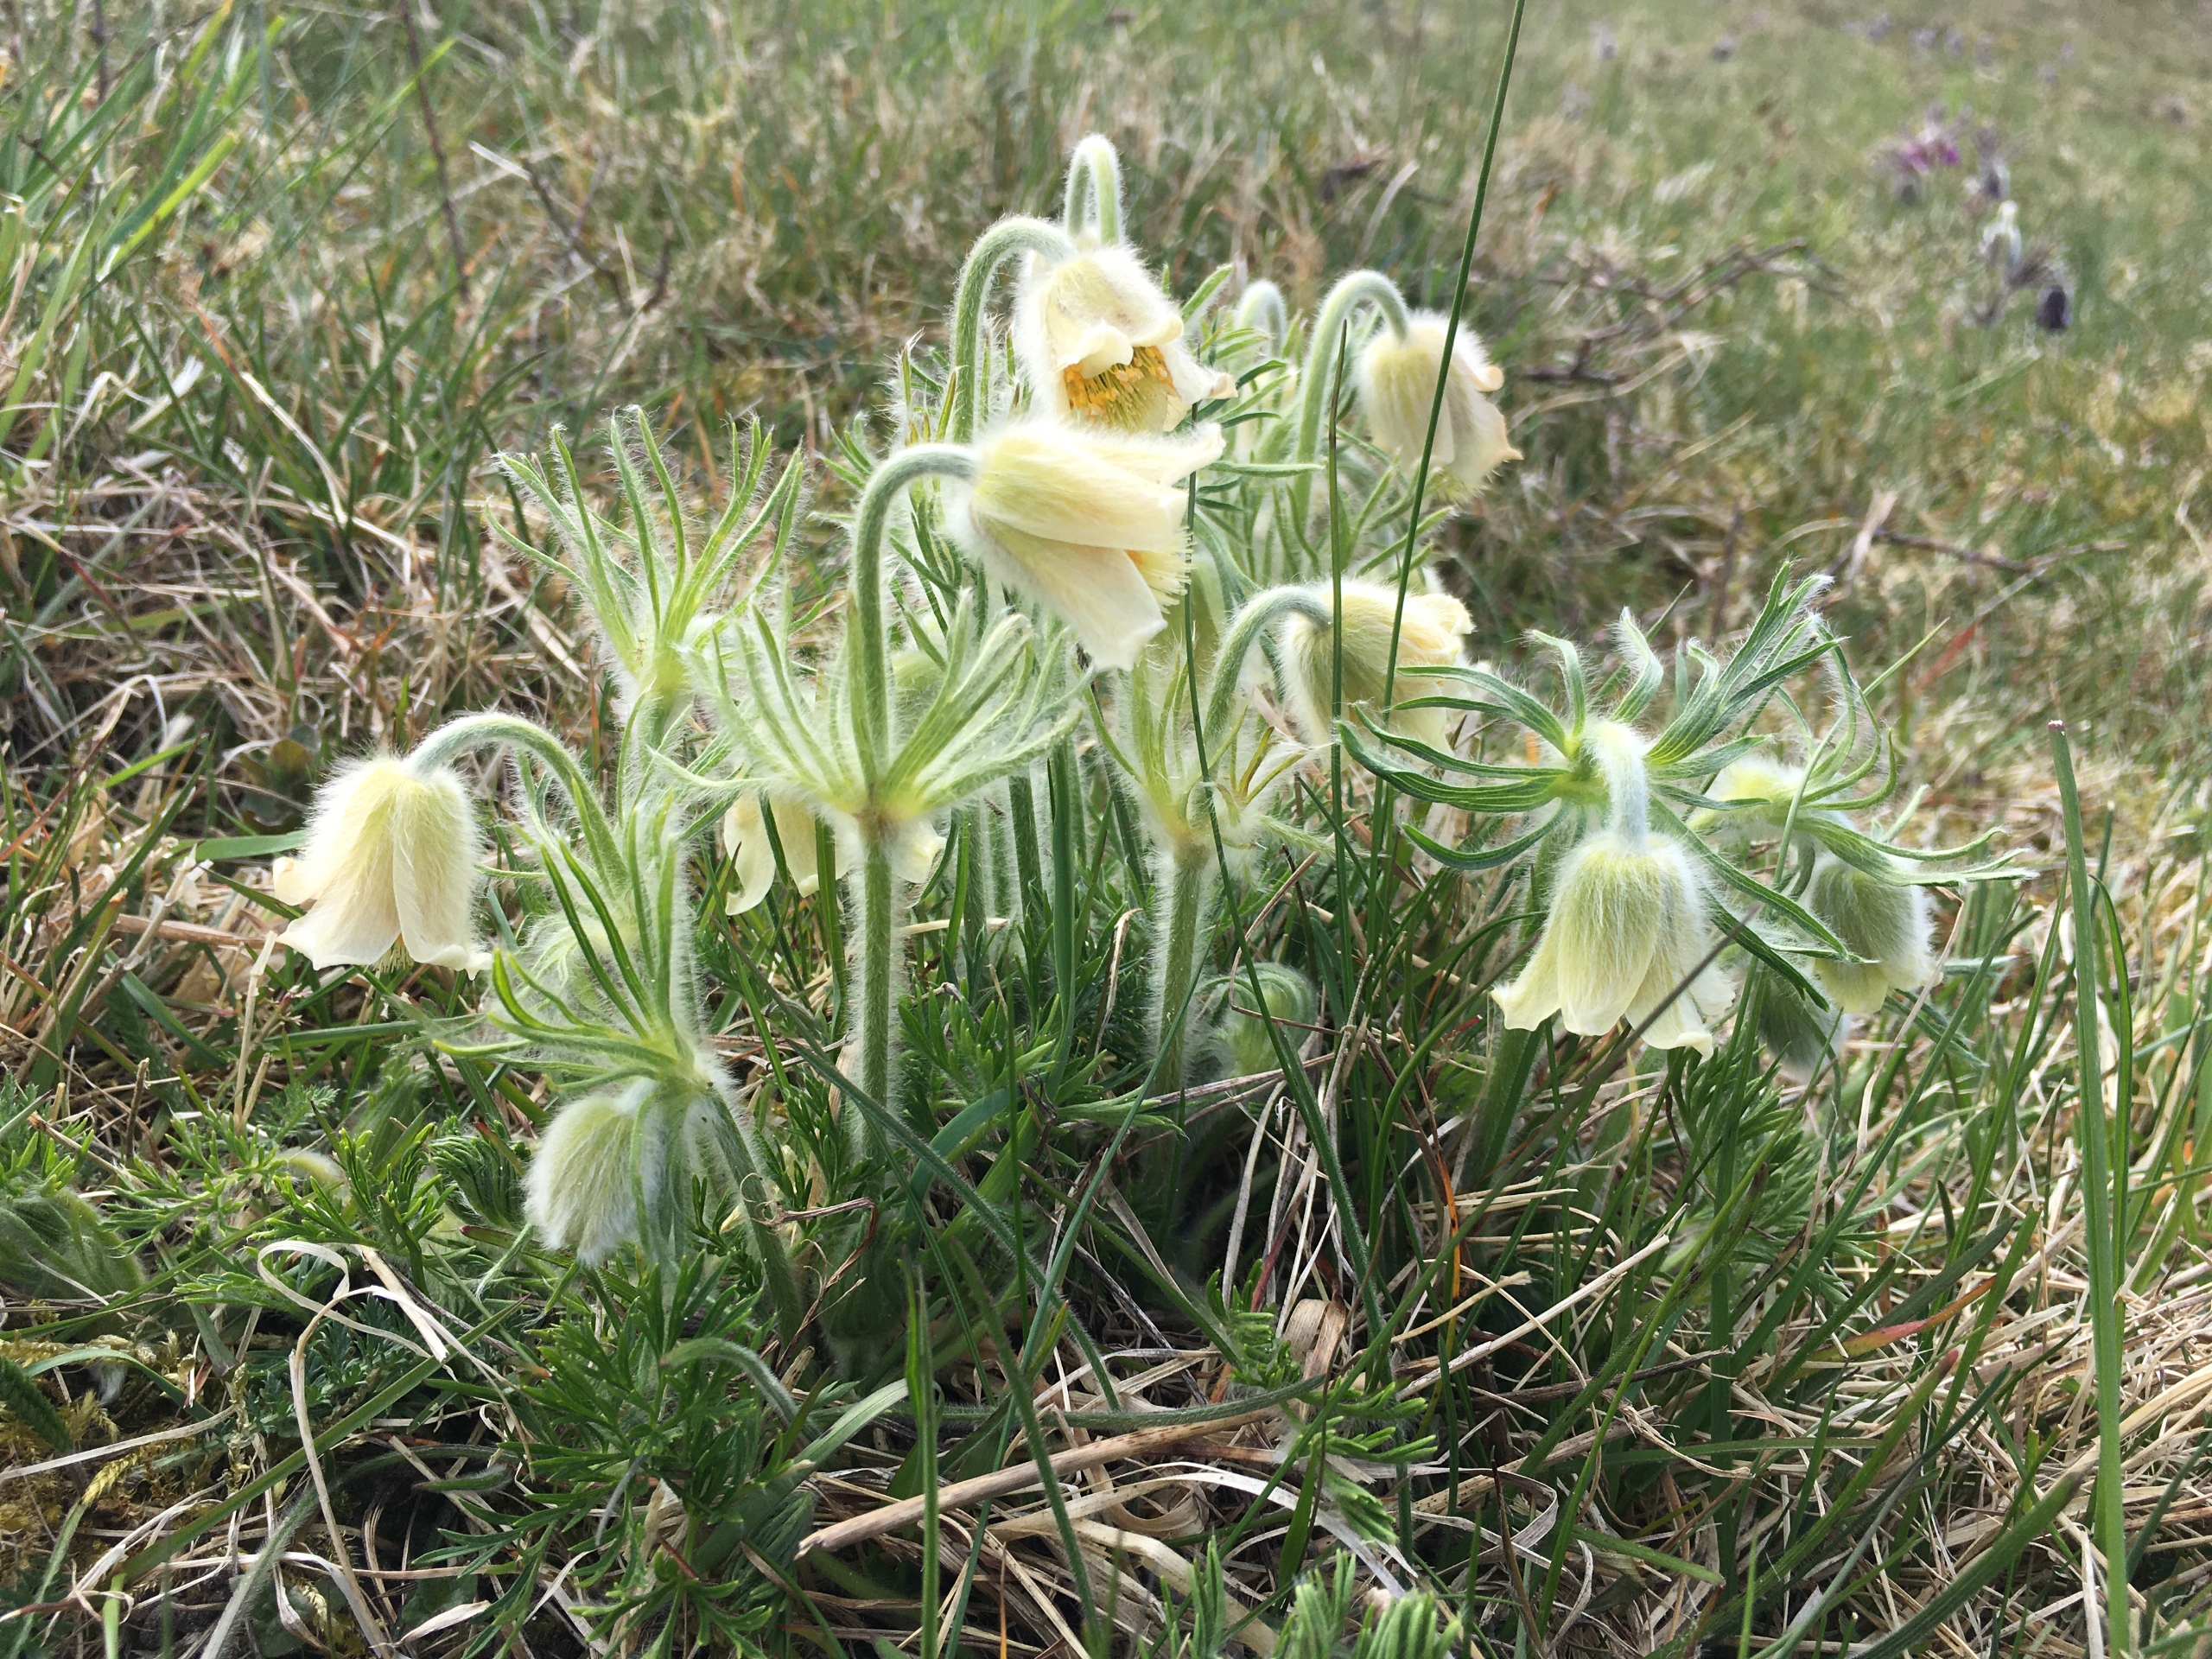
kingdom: Plantae
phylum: Tracheophyta
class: Magnoliopsida
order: Ranunculales
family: Ranunculaceae
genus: Pulsatilla
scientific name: Pulsatilla pratensis
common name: Nikkende kobjælde
